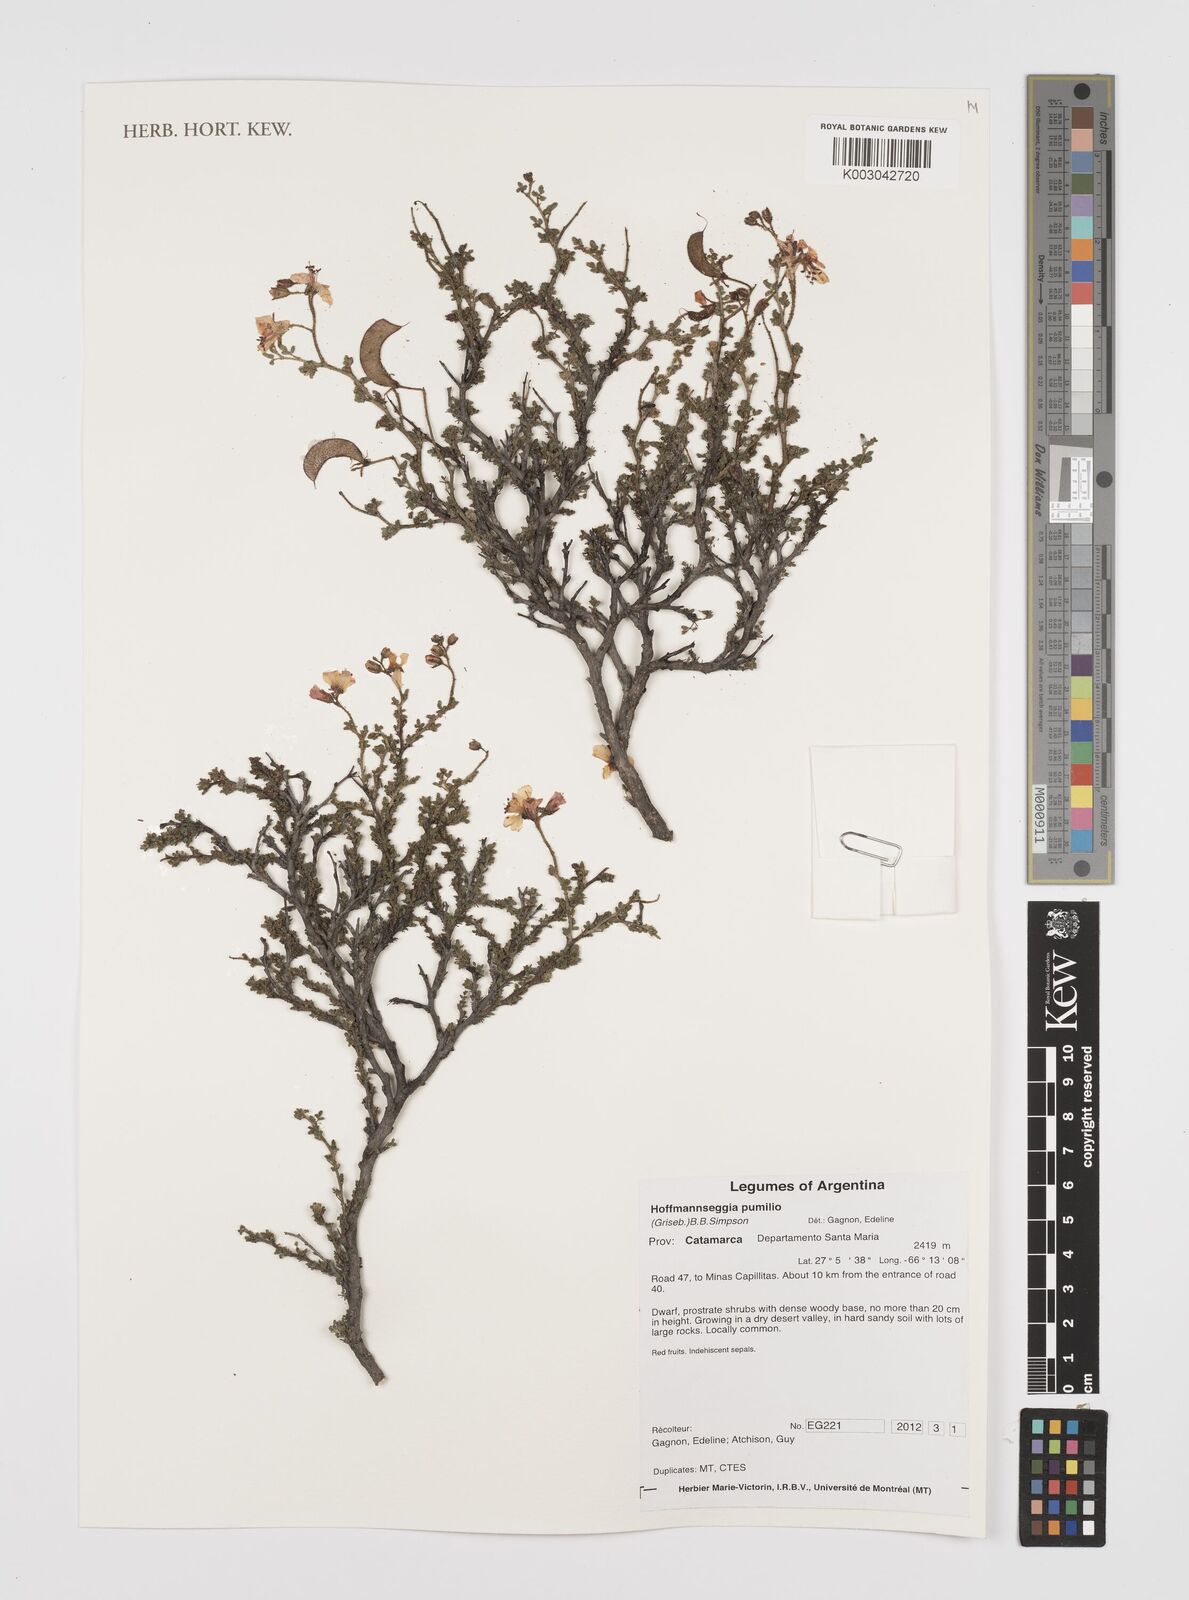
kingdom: Plantae
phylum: Tracheophyta
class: Magnoliopsida
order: Fabales
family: Fabaceae
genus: Hoffmannseggia
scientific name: Hoffmannseggia pumilio
